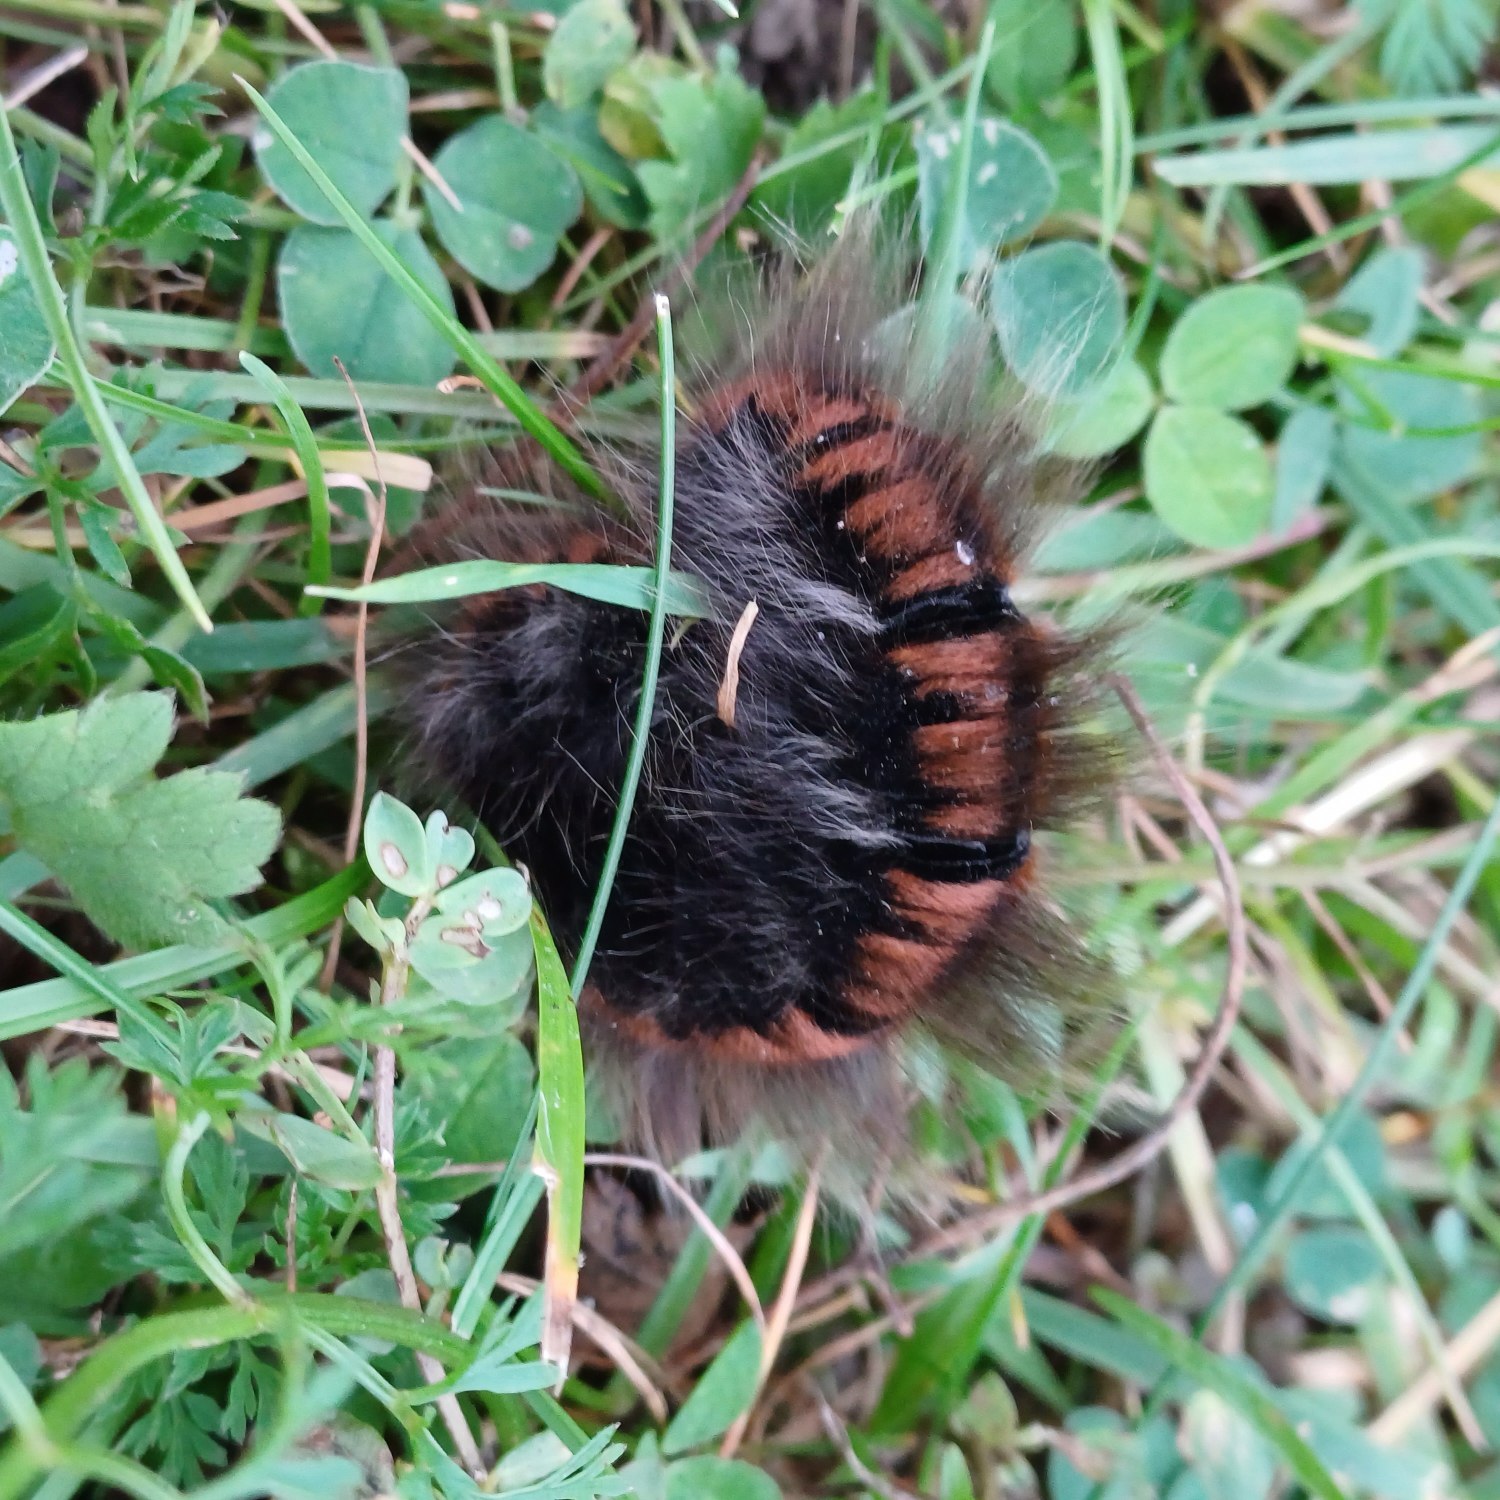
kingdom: Animalia
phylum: Arthropoda
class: Insecta
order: Lepidoptera
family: Lasiocampidae
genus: Macrothylacia
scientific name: Macrothylacia rubi
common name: Brombærspinder
